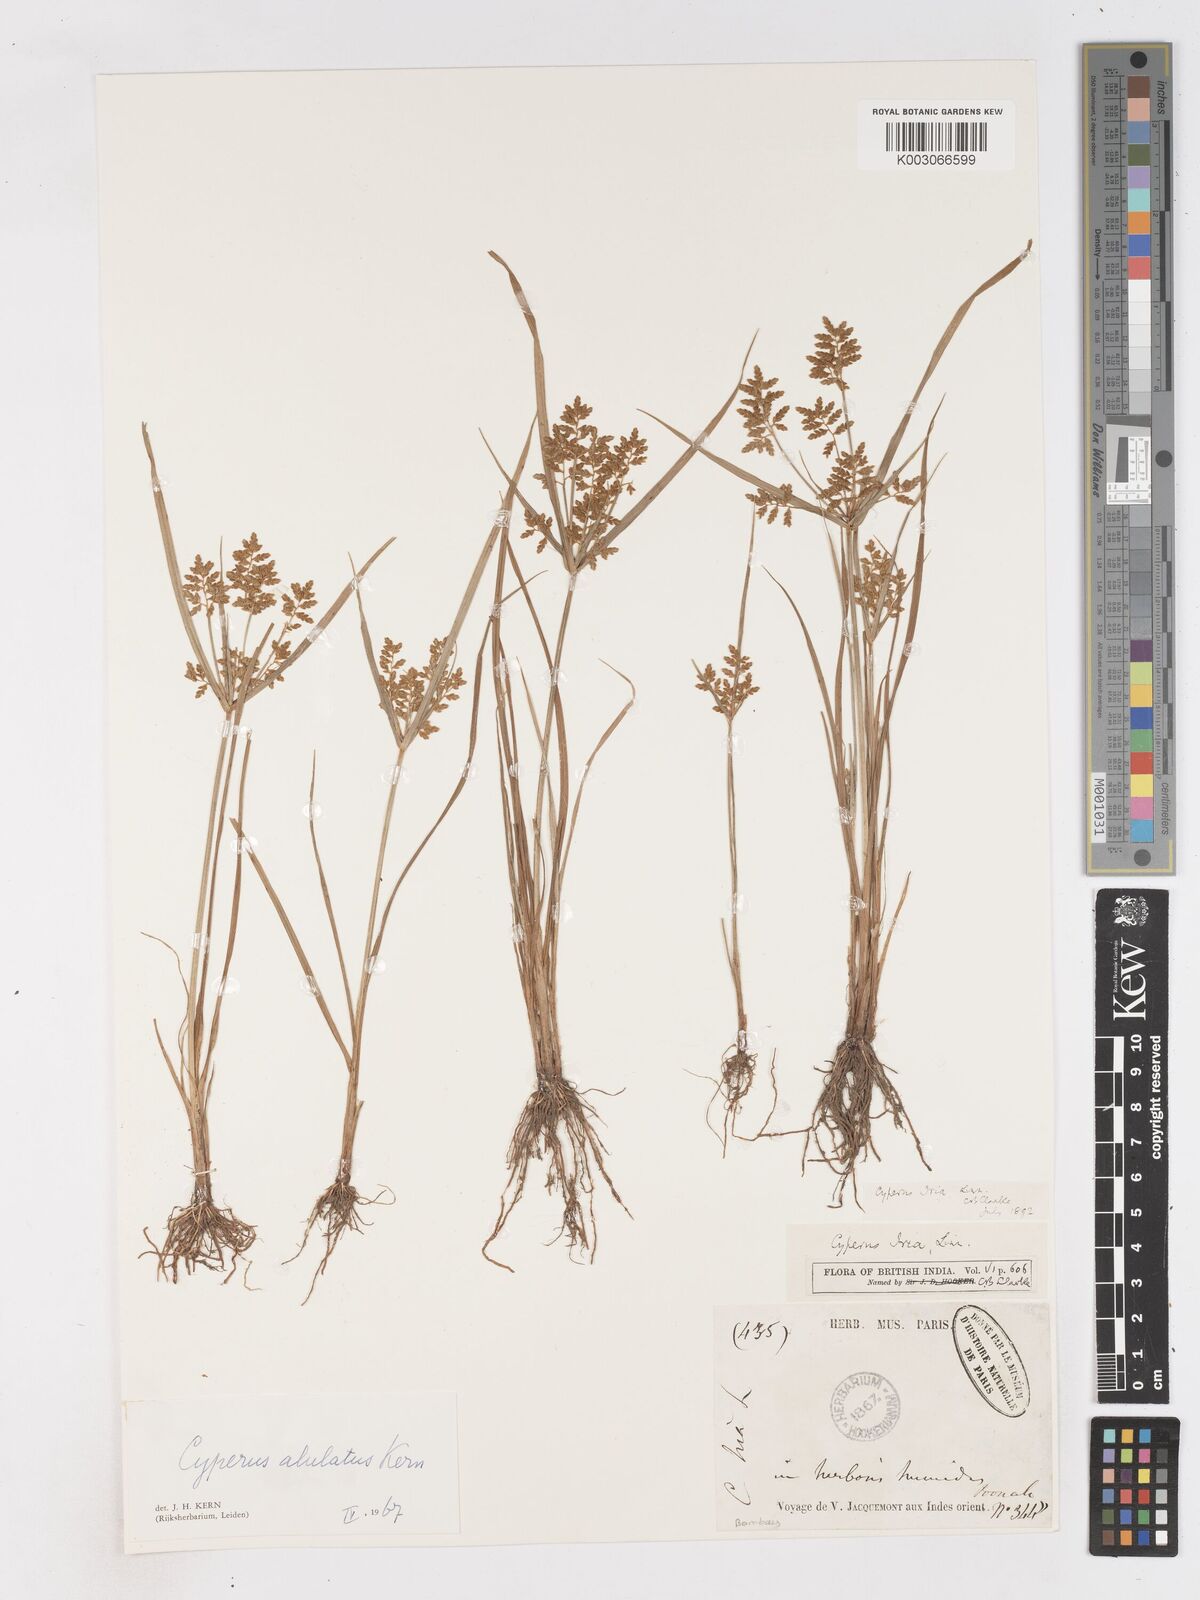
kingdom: Plantae
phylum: Tracheophyta
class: Liliopsida
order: Poales
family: Cyperaceae
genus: Cyperus
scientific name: Cyperus alulatus
